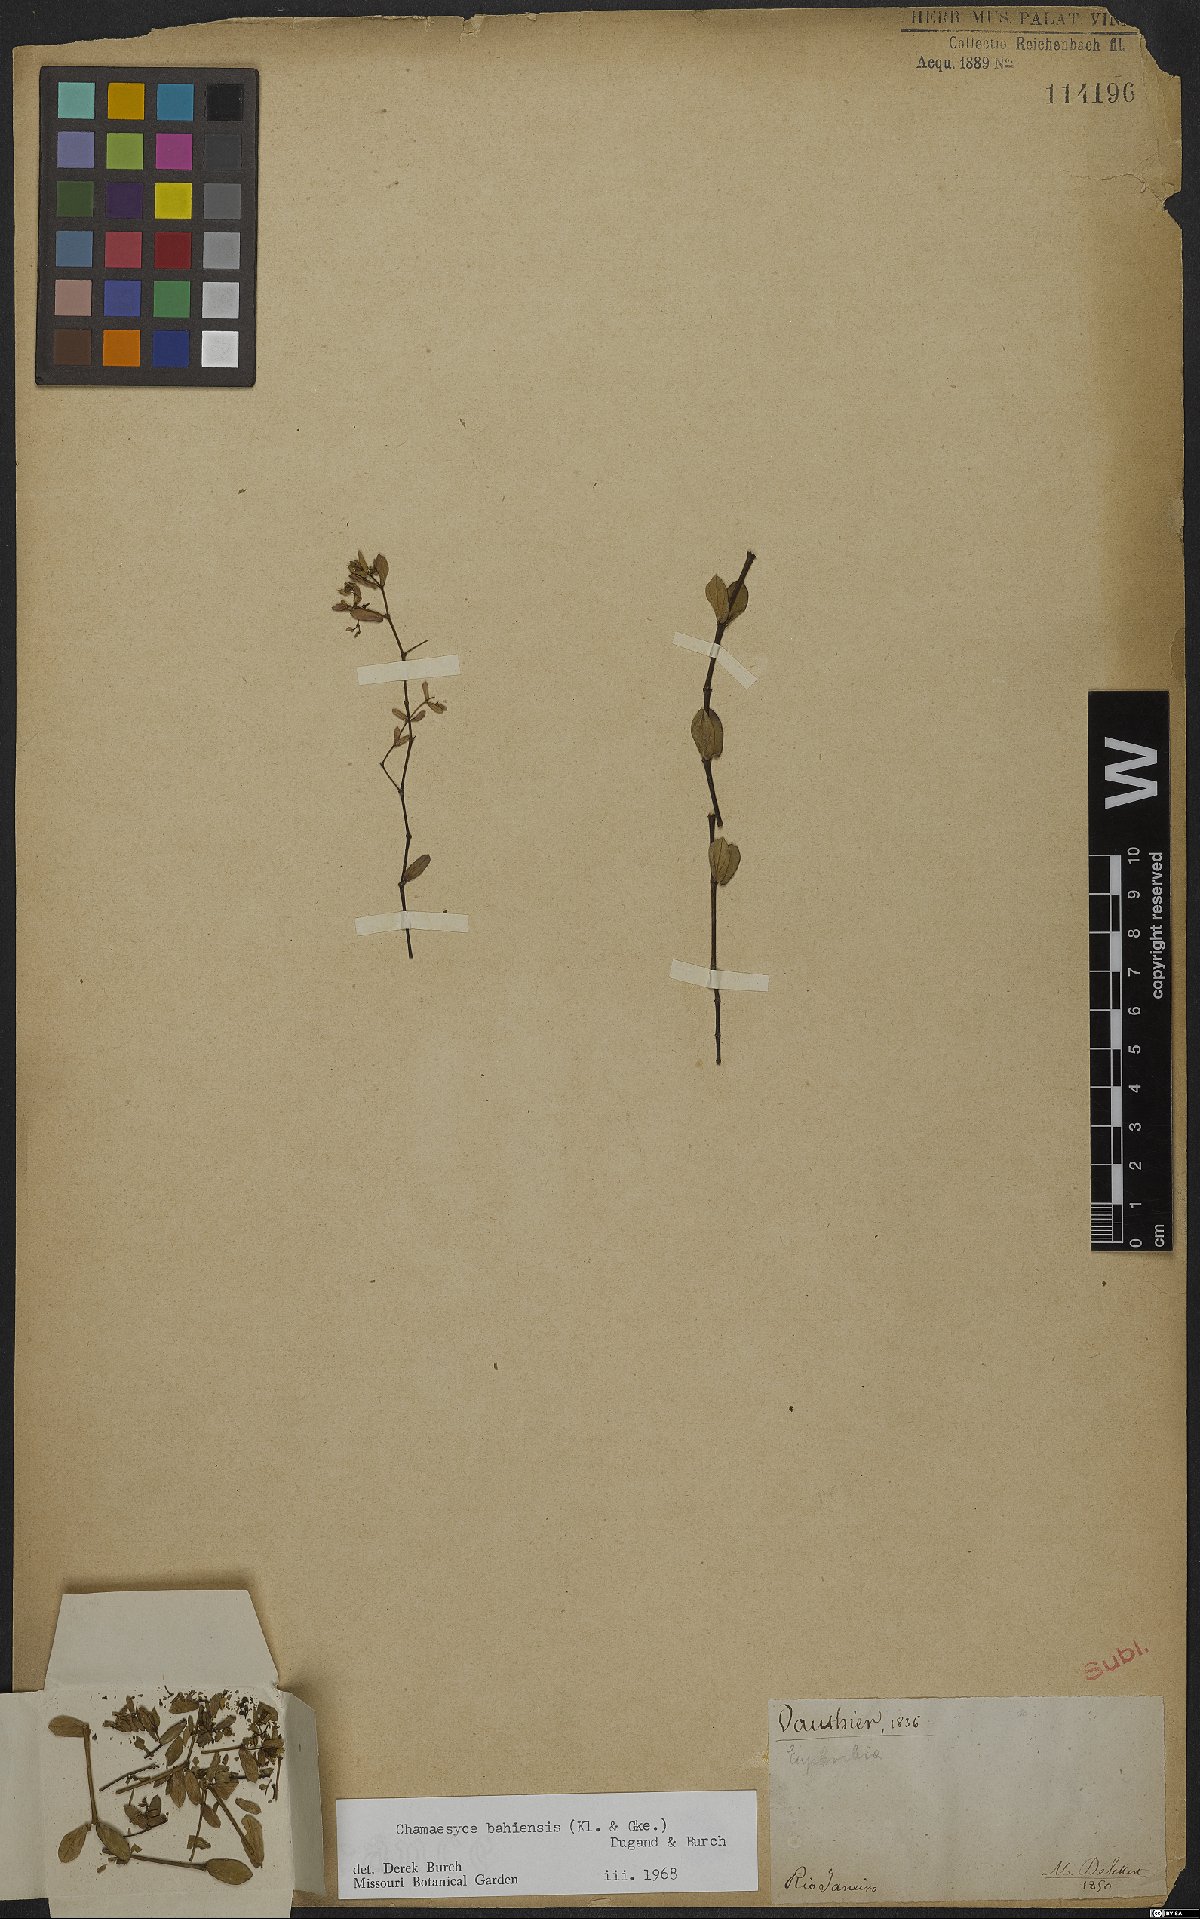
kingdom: Plantae
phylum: Tracheophyta
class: Magnoliopsida
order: Malpighiales
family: Euphorbiaceae
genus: Euphorbia
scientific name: Euphorbia bahiensis
